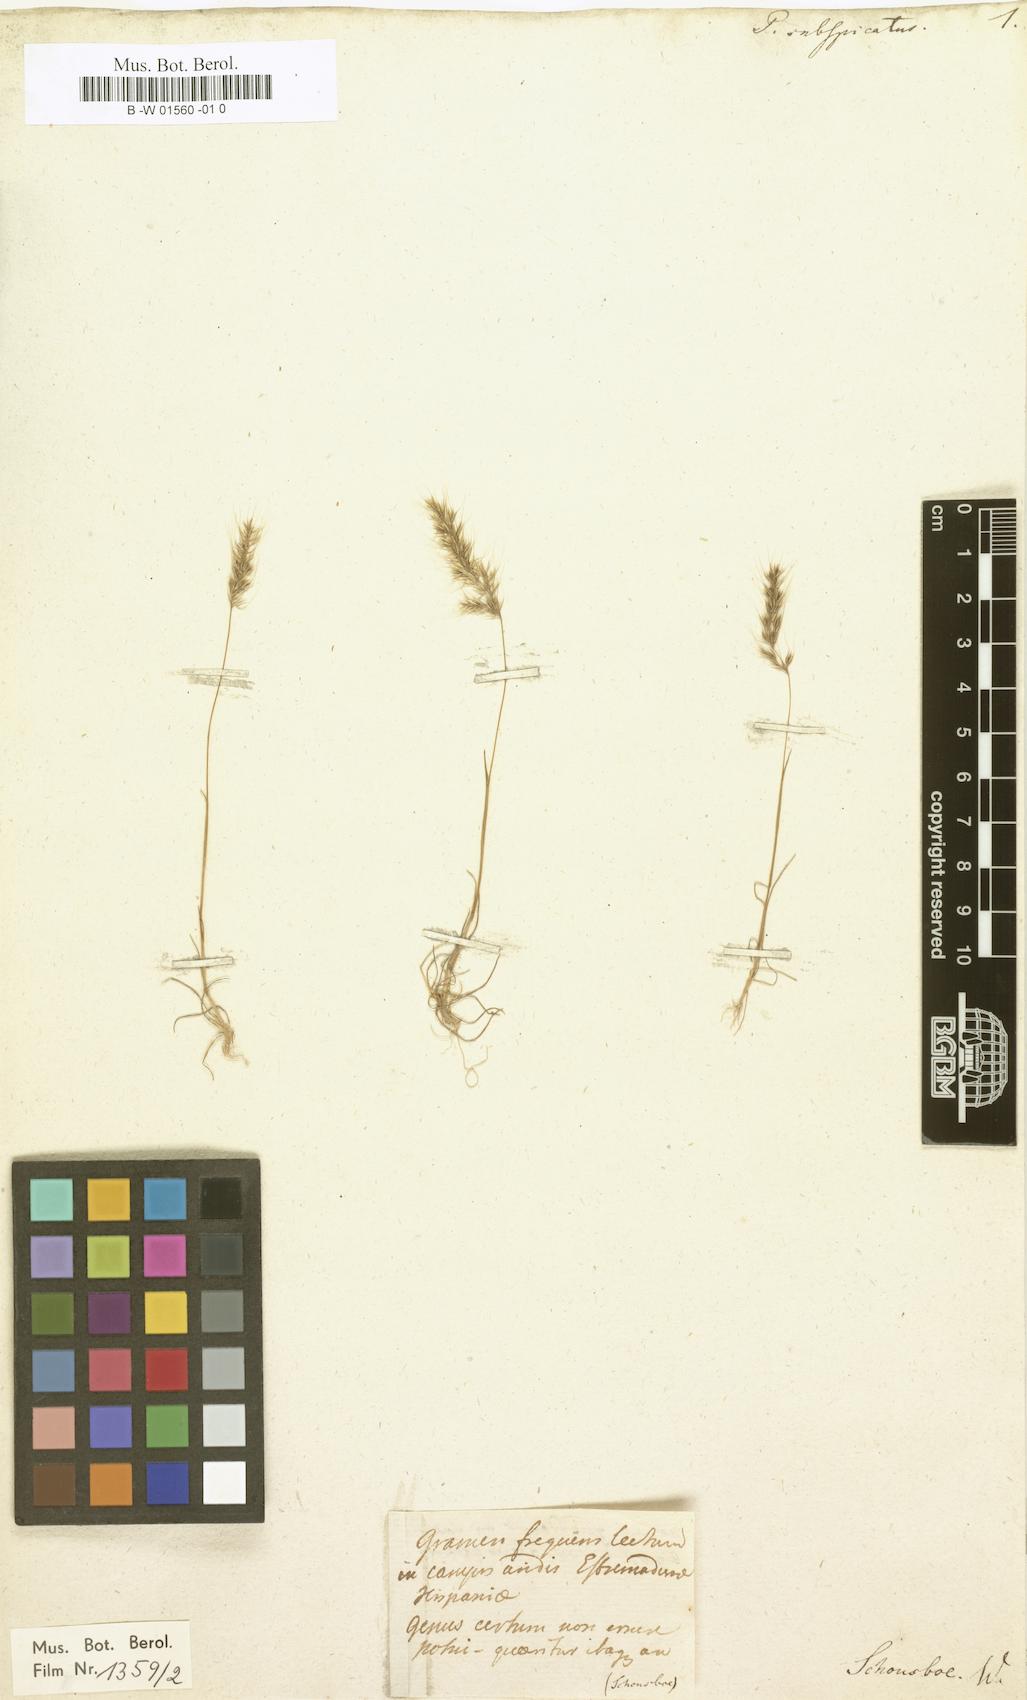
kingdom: Plantae
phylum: Tracheophyta
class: Liliopsida
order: Poales
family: Poaceae
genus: Agrostis
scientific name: Agrostis subspicata
